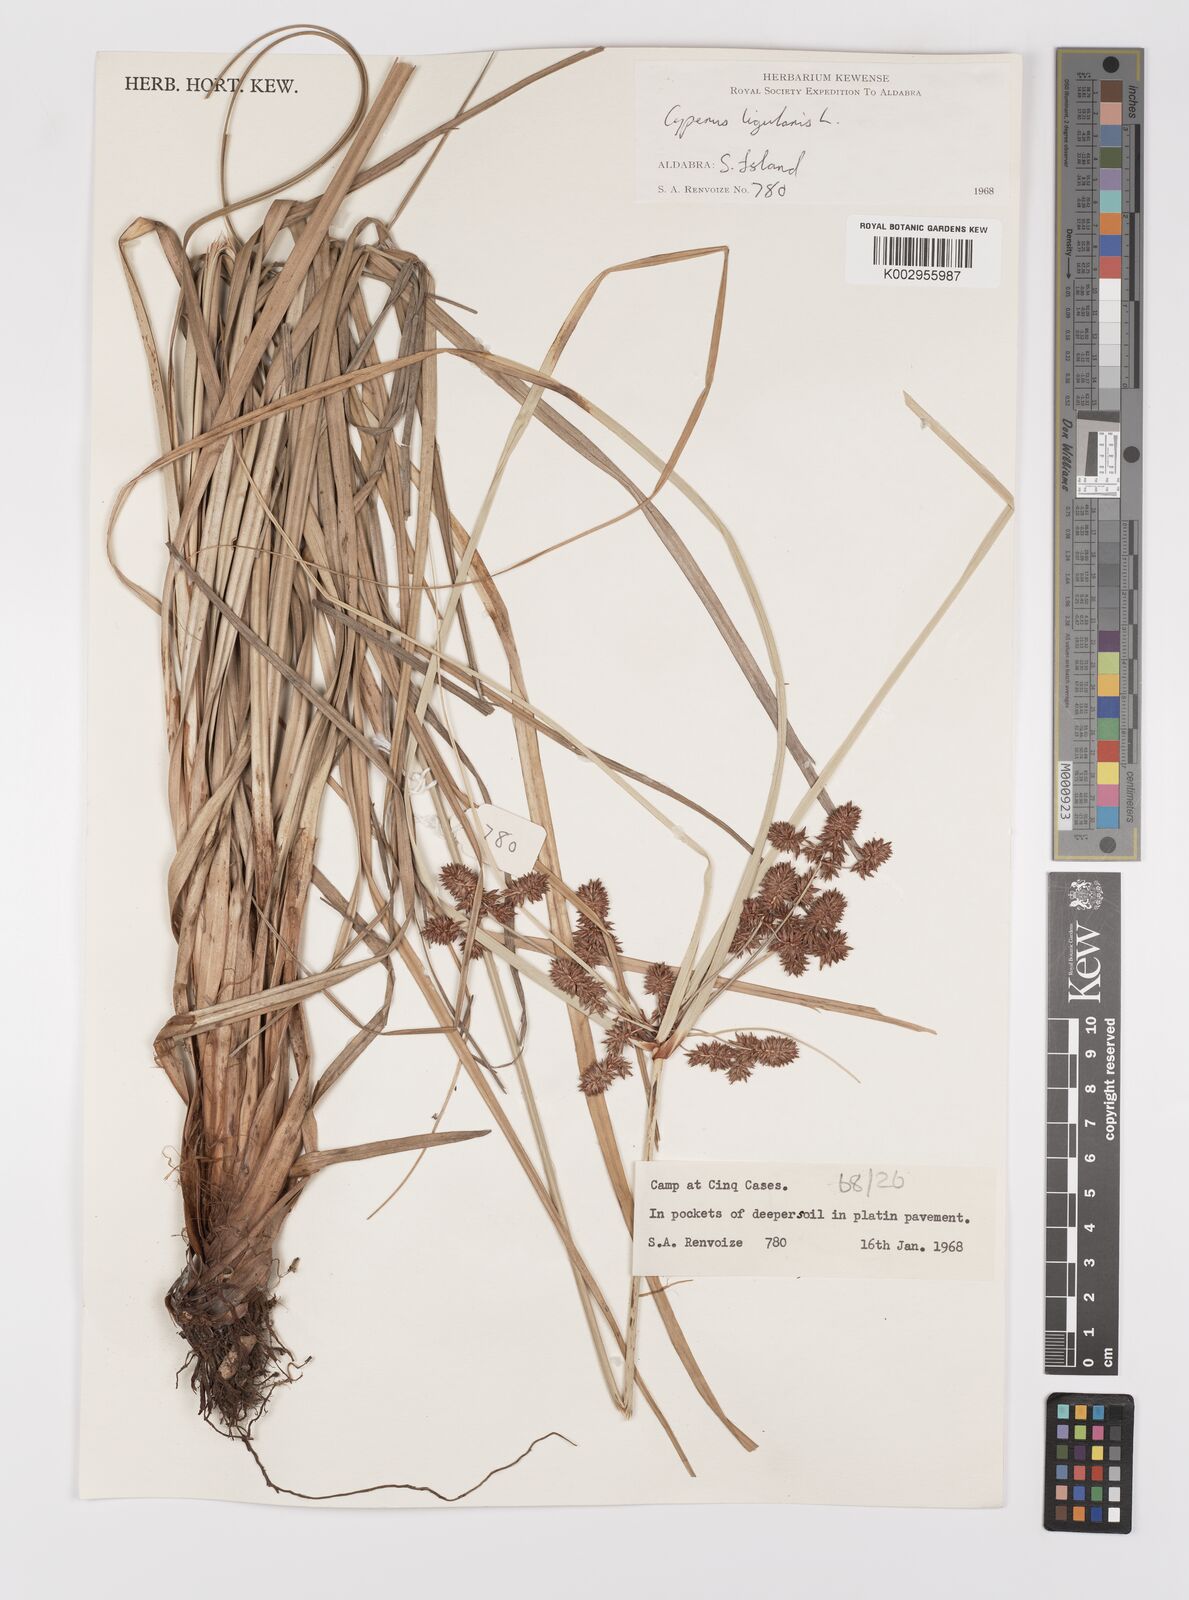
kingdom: Plantae
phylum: Tracheophyta
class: Liliopsida
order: Poales
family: Cyperaceae
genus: Cyperus
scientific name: Cyperus ligularis
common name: Swamp flat sedge
